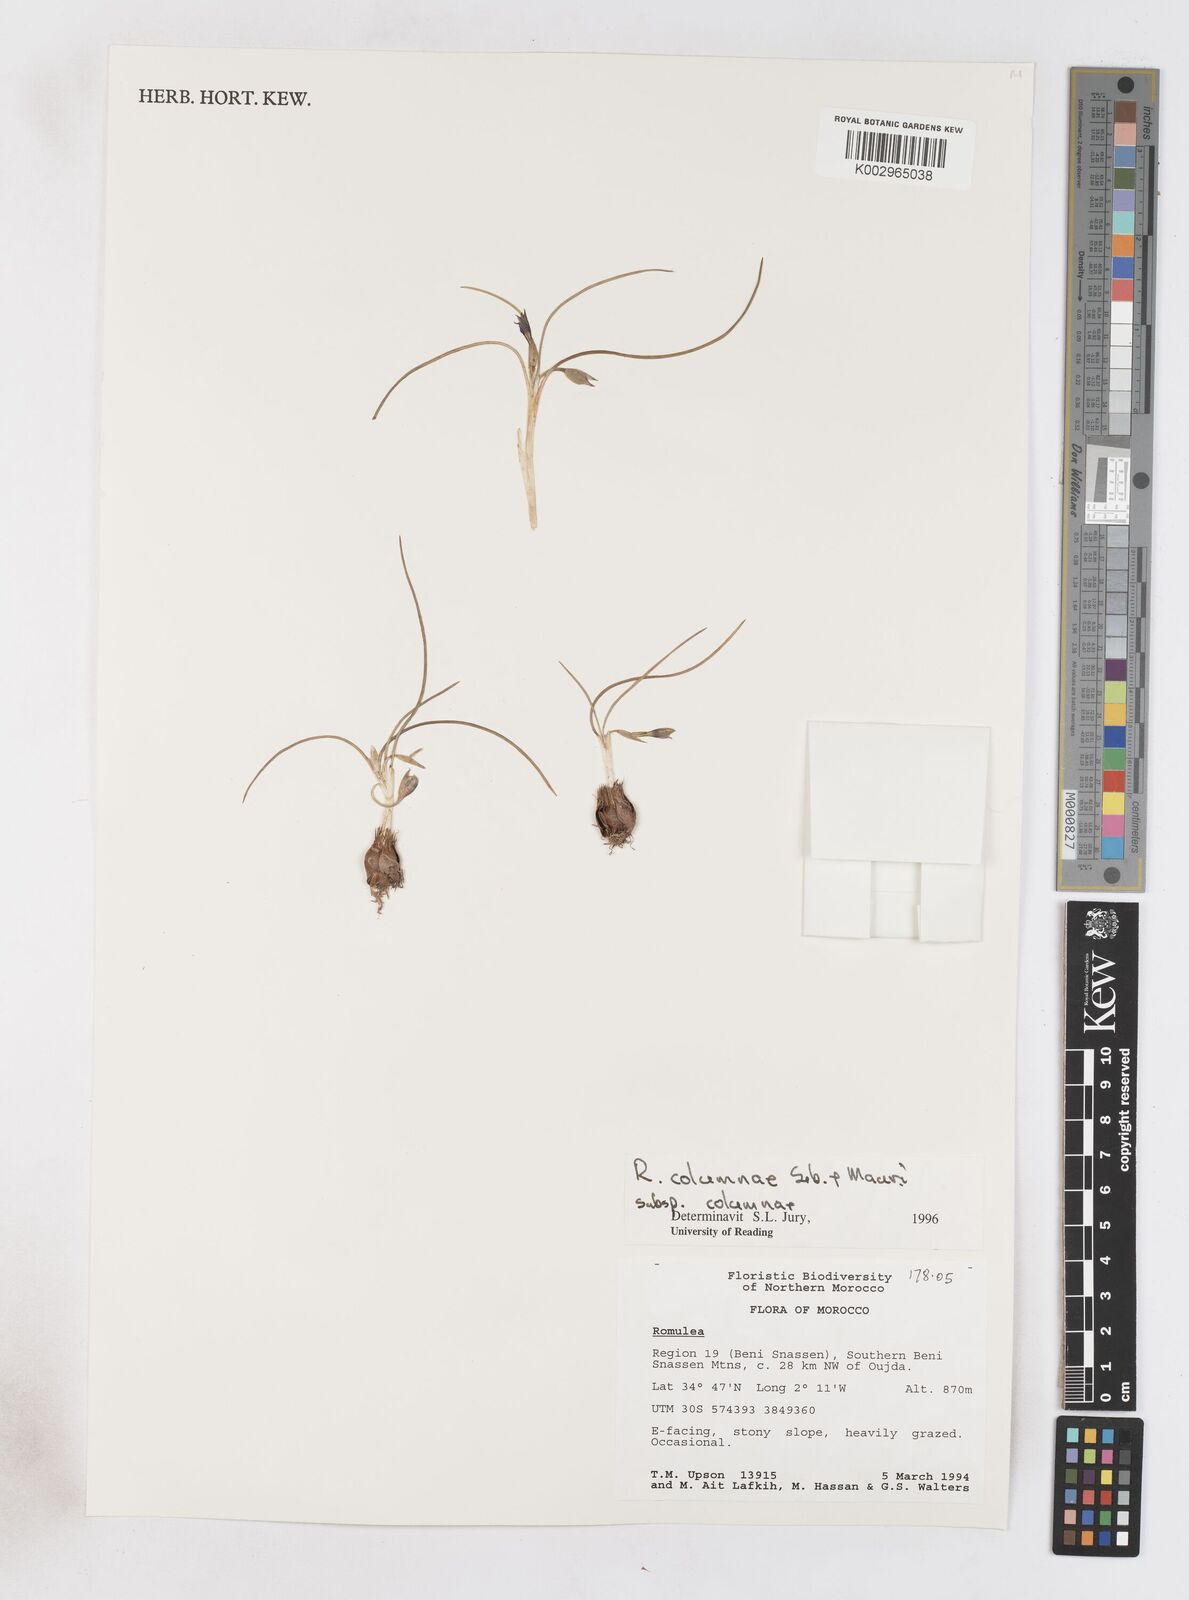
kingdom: Plantae
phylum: Tracheophyta
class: Liliopsida
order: Asparagales
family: Iridaceae
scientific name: Iridaceae
